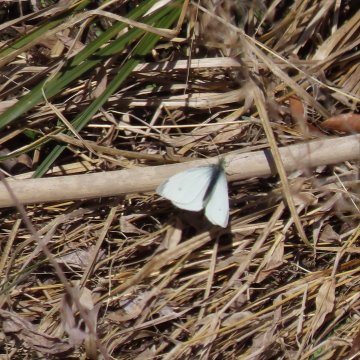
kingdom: Animalia
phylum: Arthropoda
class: Insecta
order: Lepidoptera
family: Pieridae
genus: Pieris
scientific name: Pieris rapae
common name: Cabbage White
